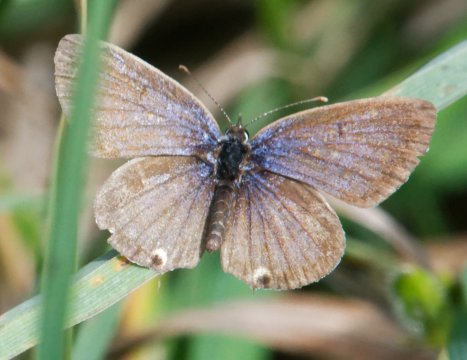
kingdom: Animalia
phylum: Arthropoda
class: Insecta
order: Lepidoptera
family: Lycaenidae
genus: Elkalyce
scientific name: Elkalyce comyntas
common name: Eastern Tailed-Blue
